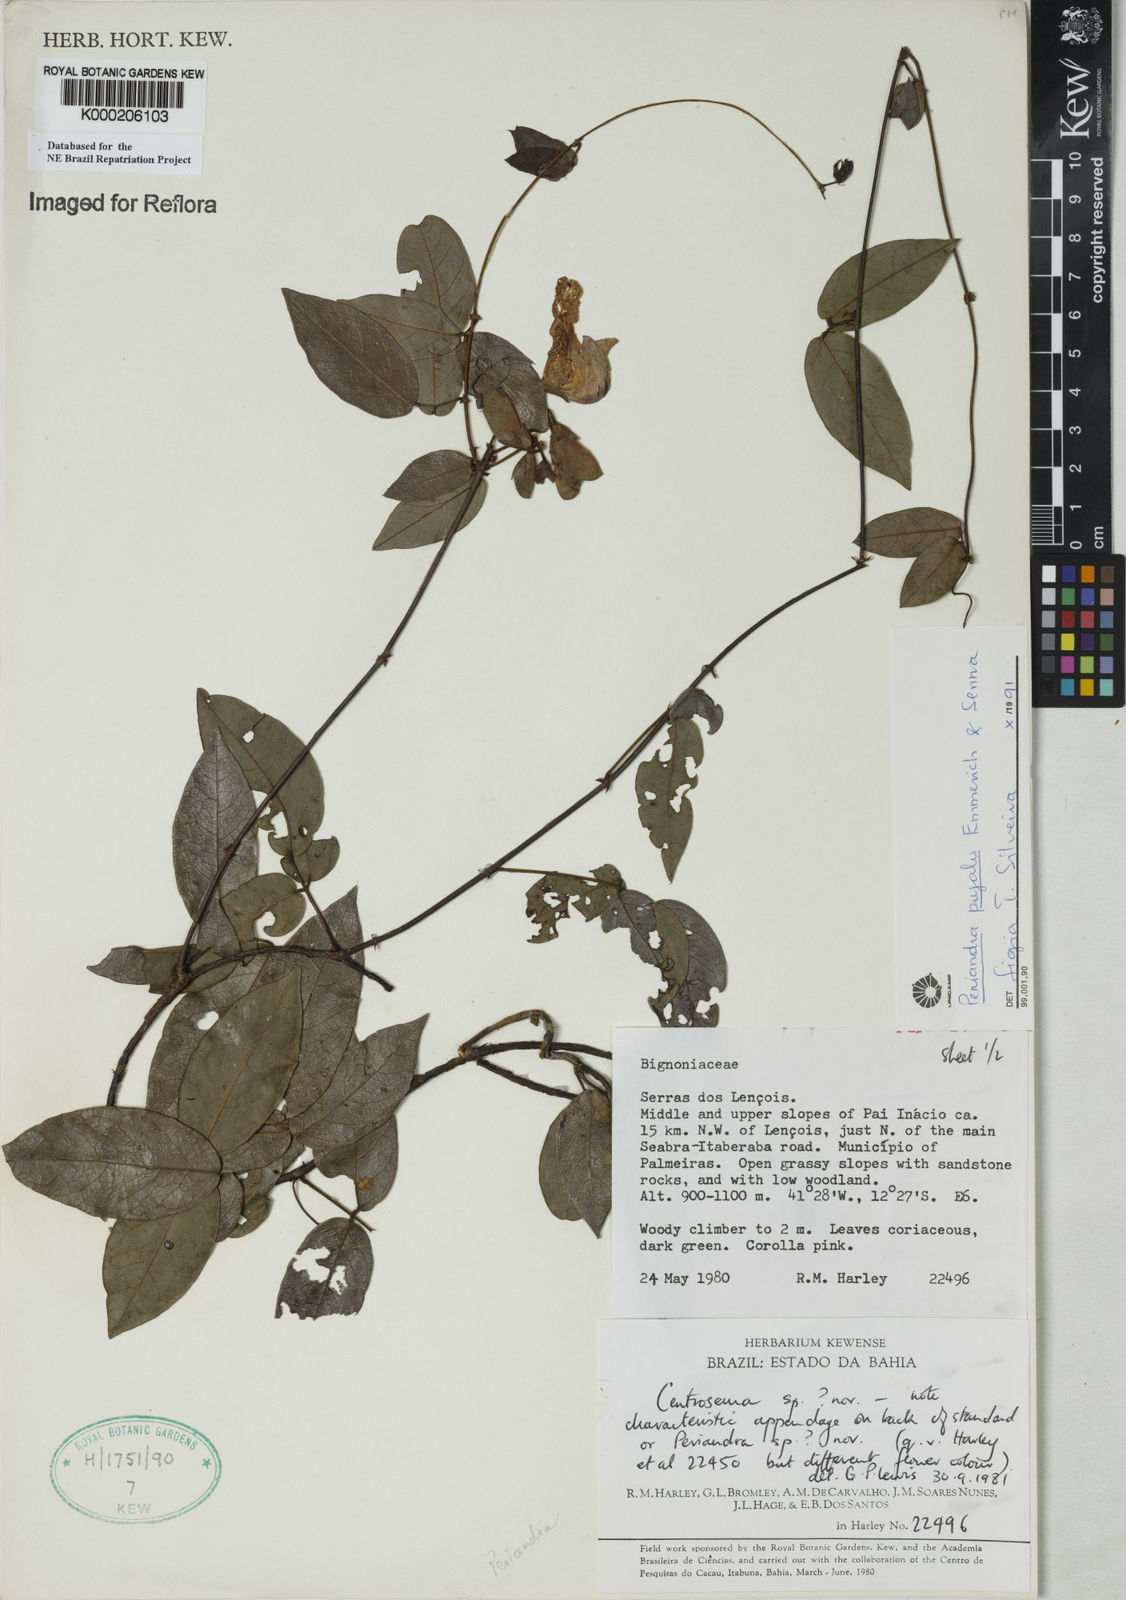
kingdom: Plantae
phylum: Tracheophyta
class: Magnoliopsida
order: Fabales
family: Fabaceae
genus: Periandra
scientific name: Periandra pujalu
